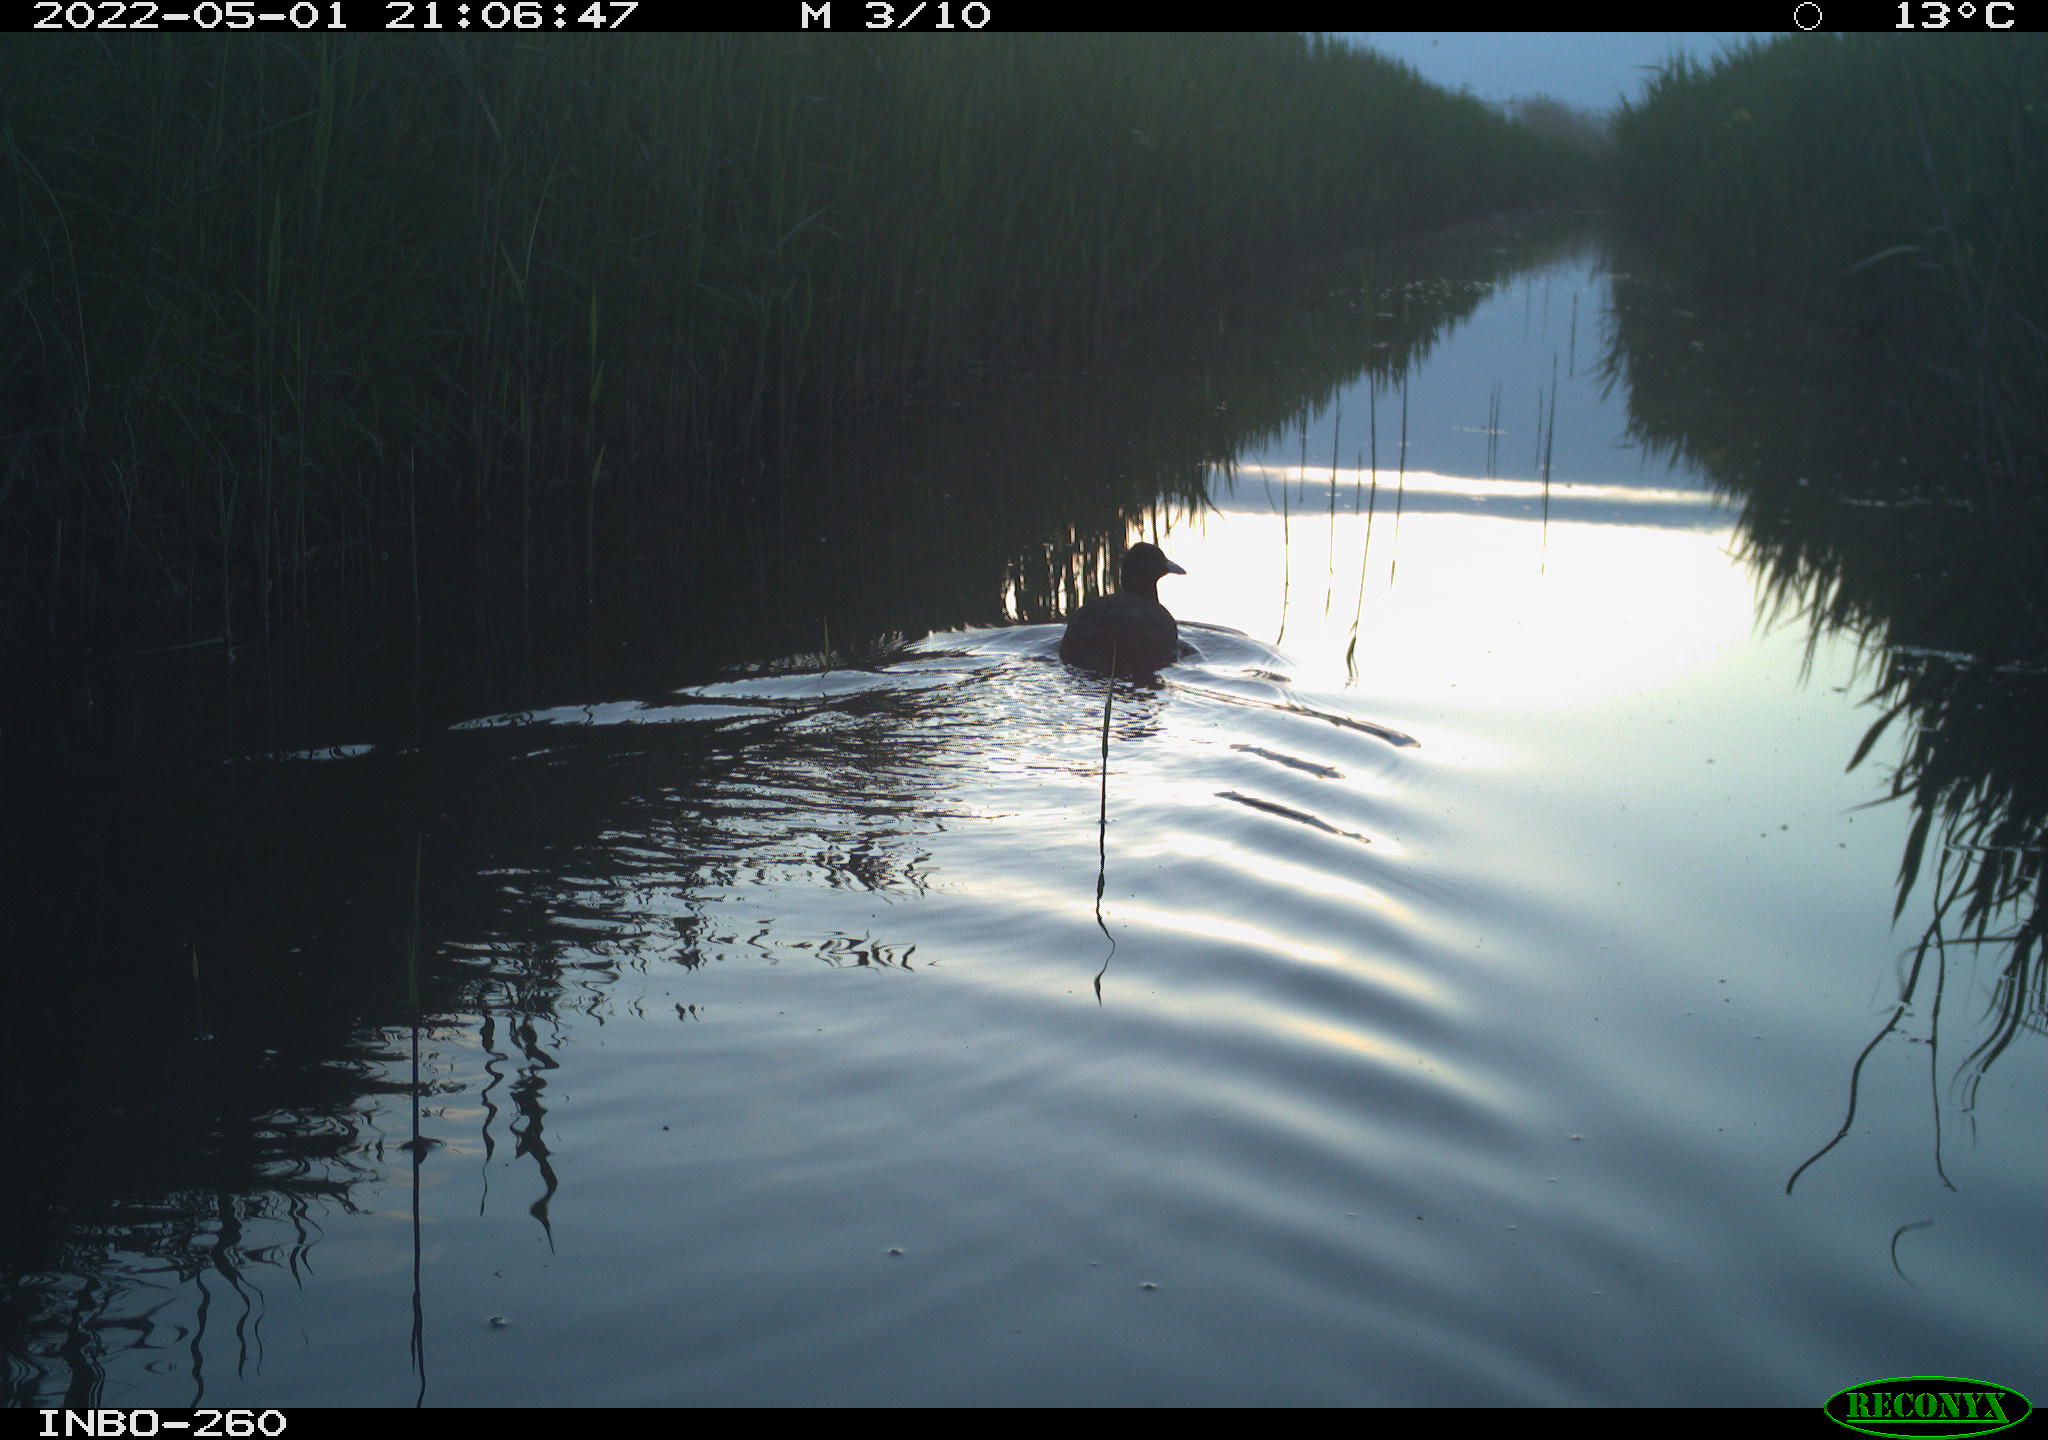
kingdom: Animalia
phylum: Chordata
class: Aves
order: Gruiformes
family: Rallidae
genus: Fulica
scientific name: Fulica atra
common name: Eurasian coot
